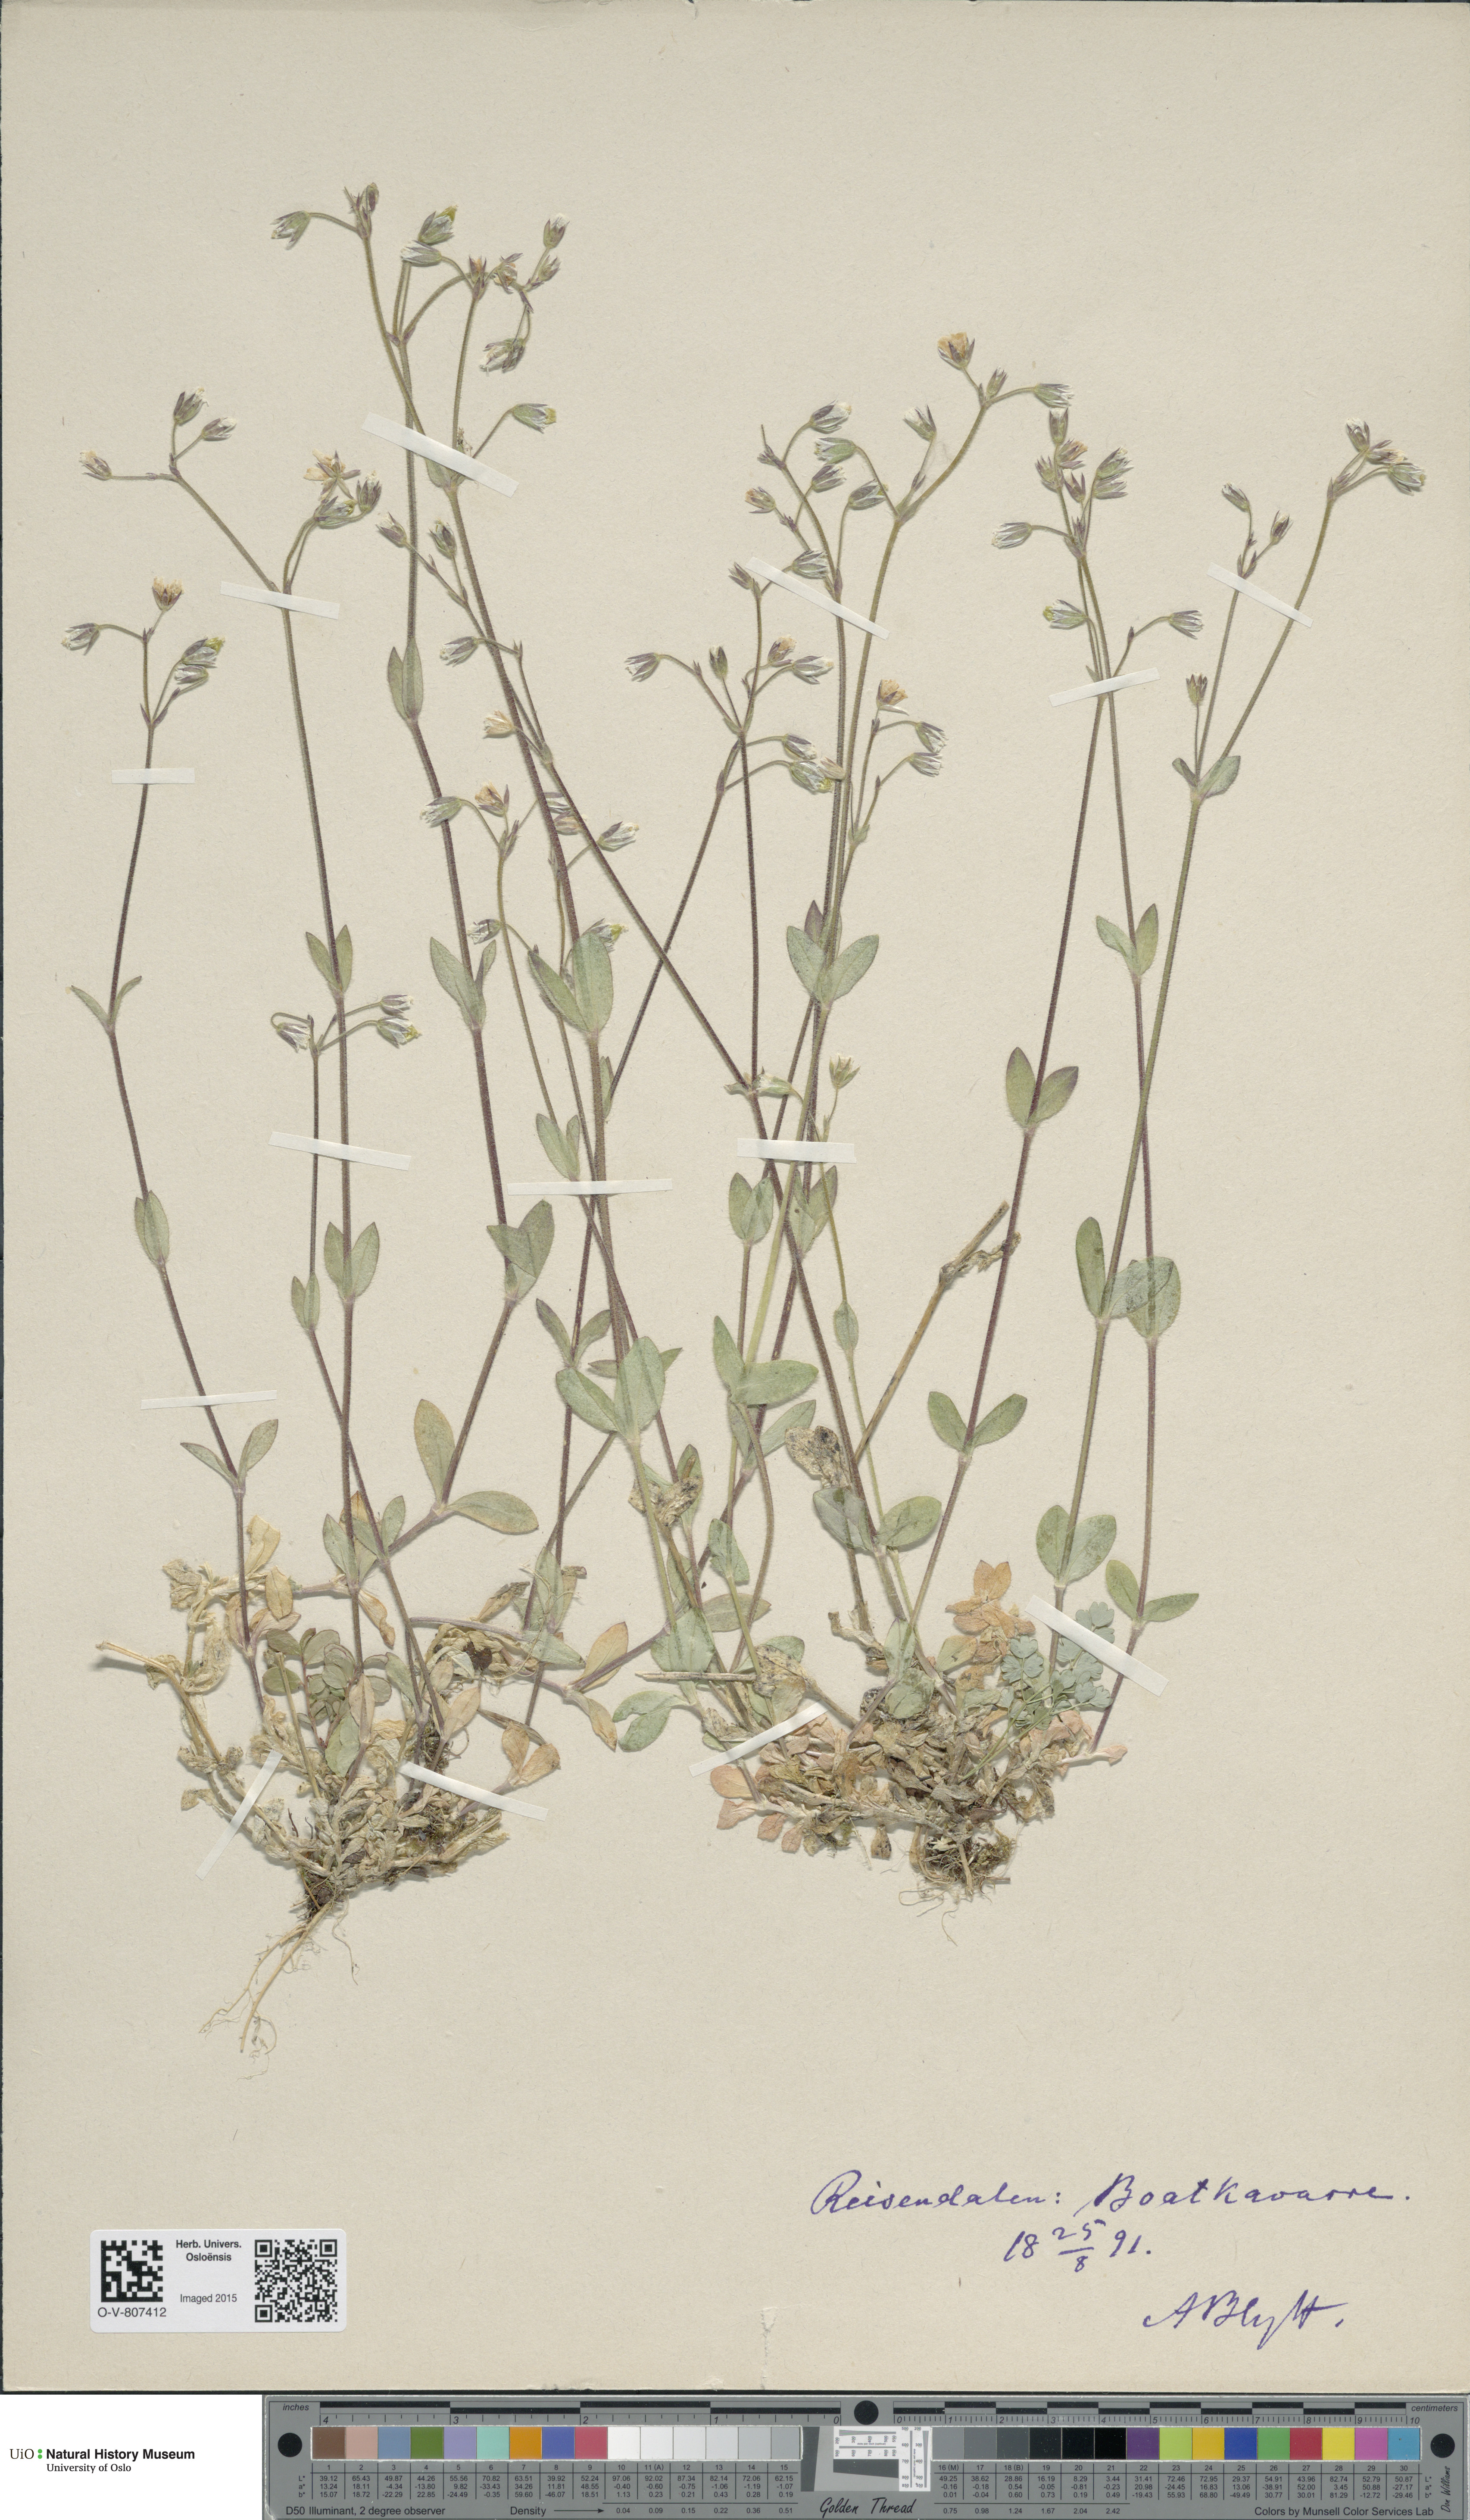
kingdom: Plantae
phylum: Tracheophyta
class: Magnoliopsida
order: Caryophyllales
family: Caryophyllaceae
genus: Cerastium
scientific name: Cerastium holosteoides
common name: Big chickweed
